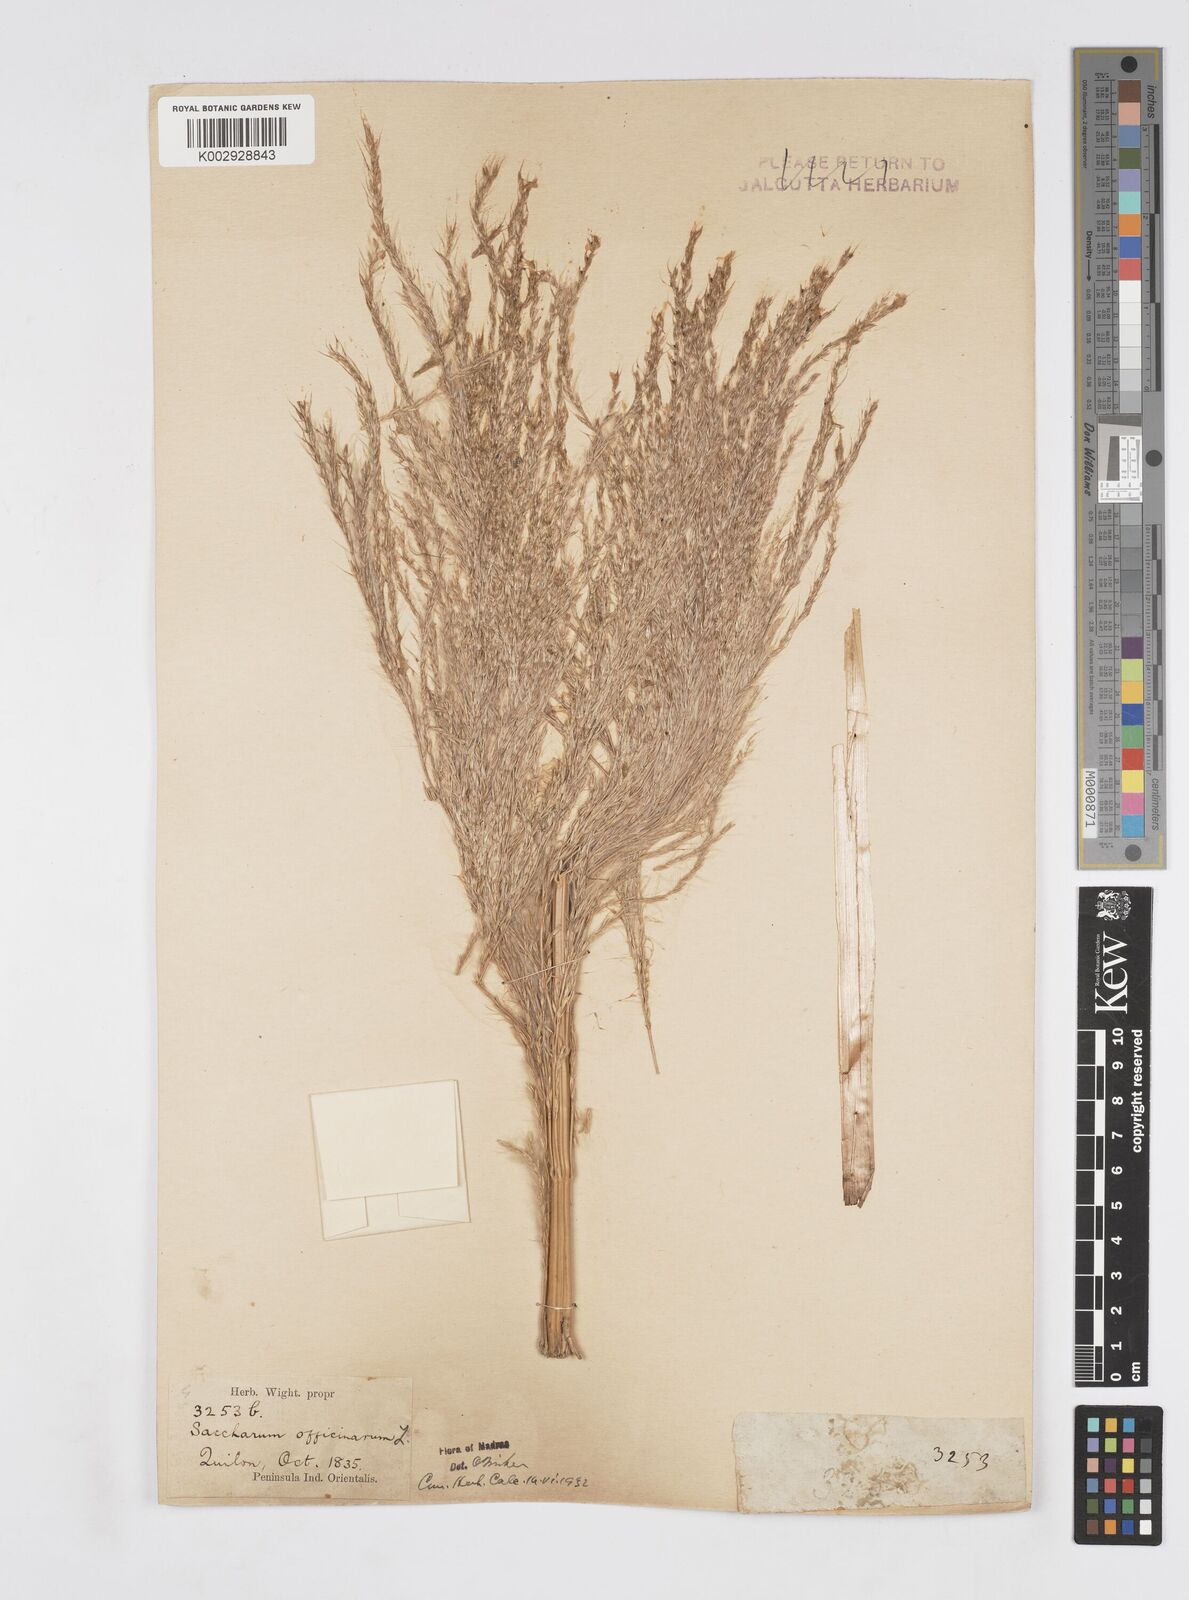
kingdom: Plantae
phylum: Tracheophyta
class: Liliopsida
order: Poales
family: Poaceae
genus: Saccharum
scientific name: Saccharum officinarum
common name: Sugarcane
